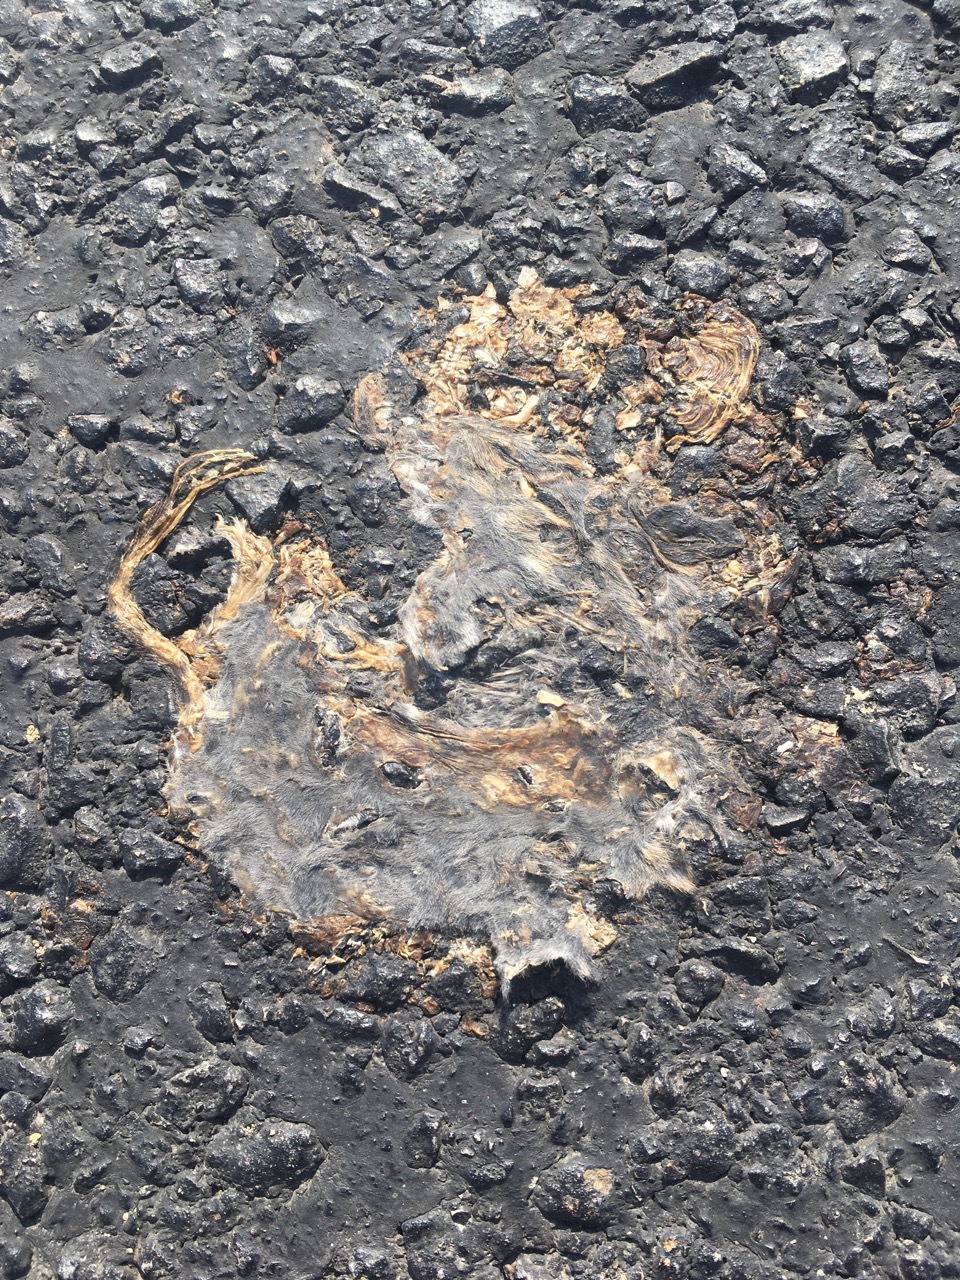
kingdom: Animalia
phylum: Chordata
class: Mammalia
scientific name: Mammalia
